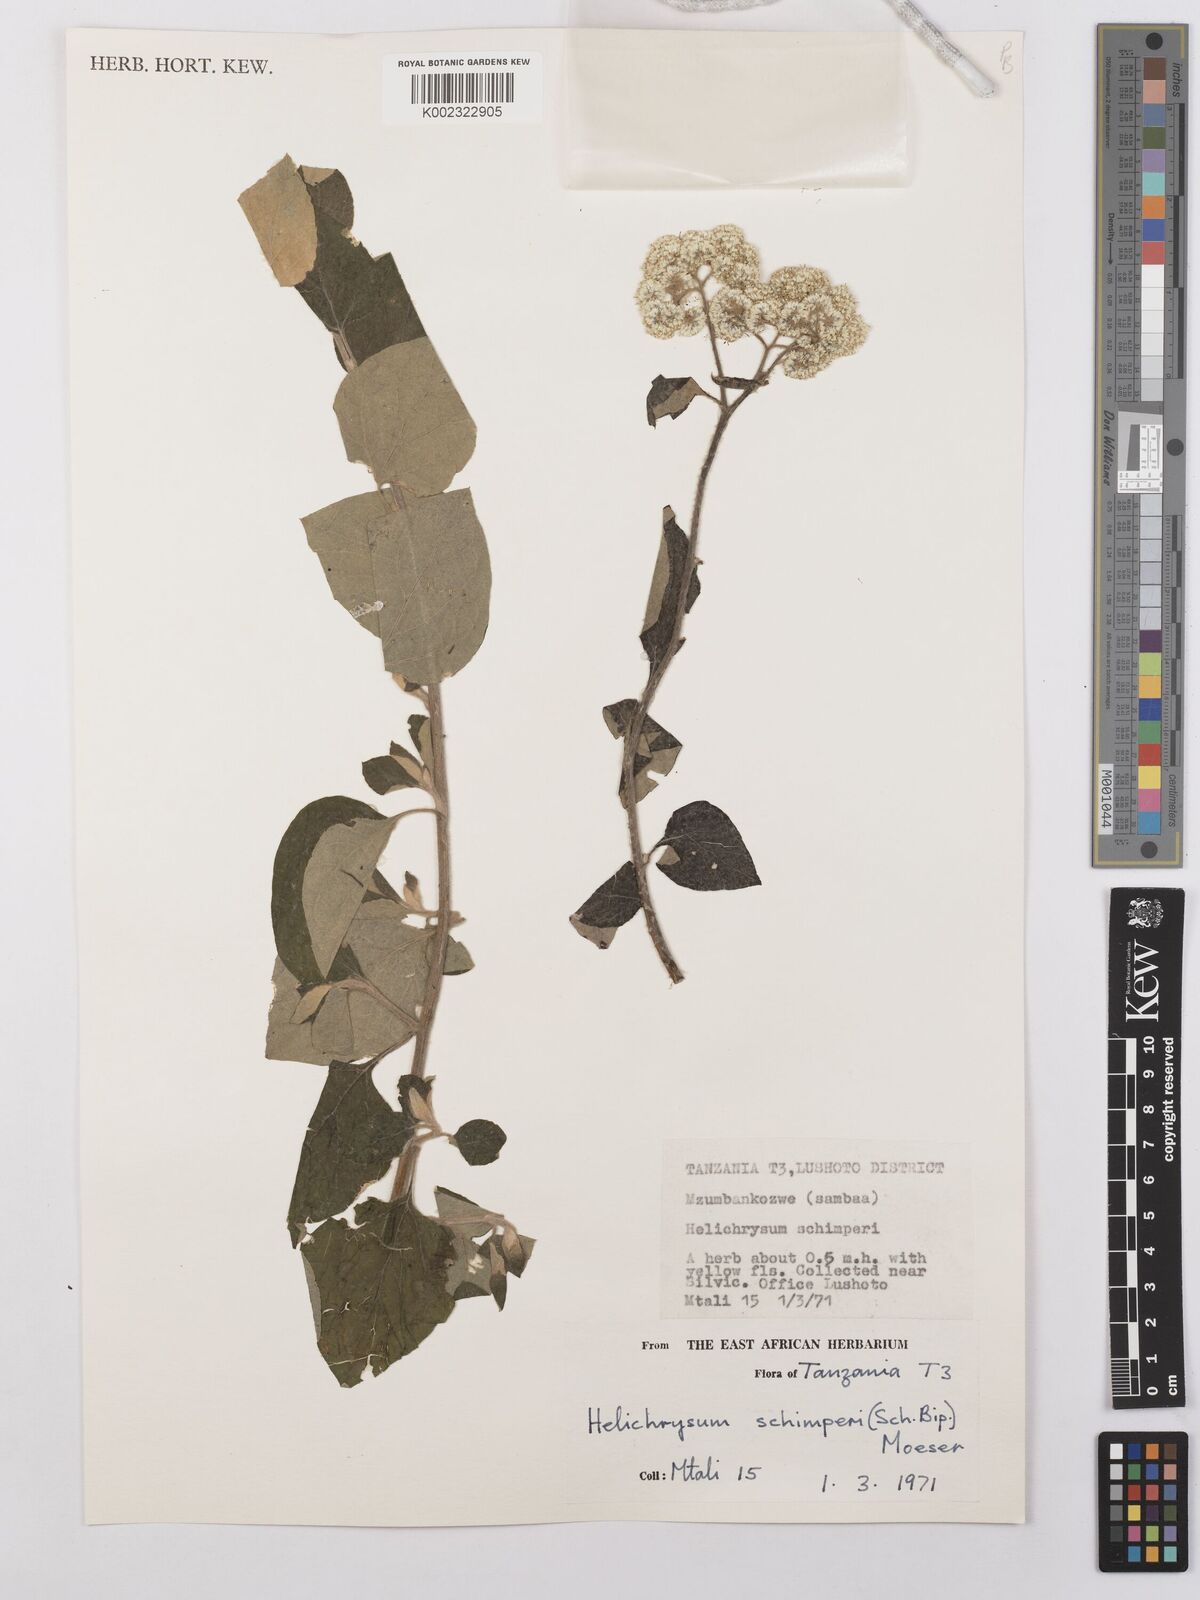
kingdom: Plantae
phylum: Tracheophyta
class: Magnoliopsida
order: Asterales
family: Asteraceae
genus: Helichrysum
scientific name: Helichrysum schimperi
